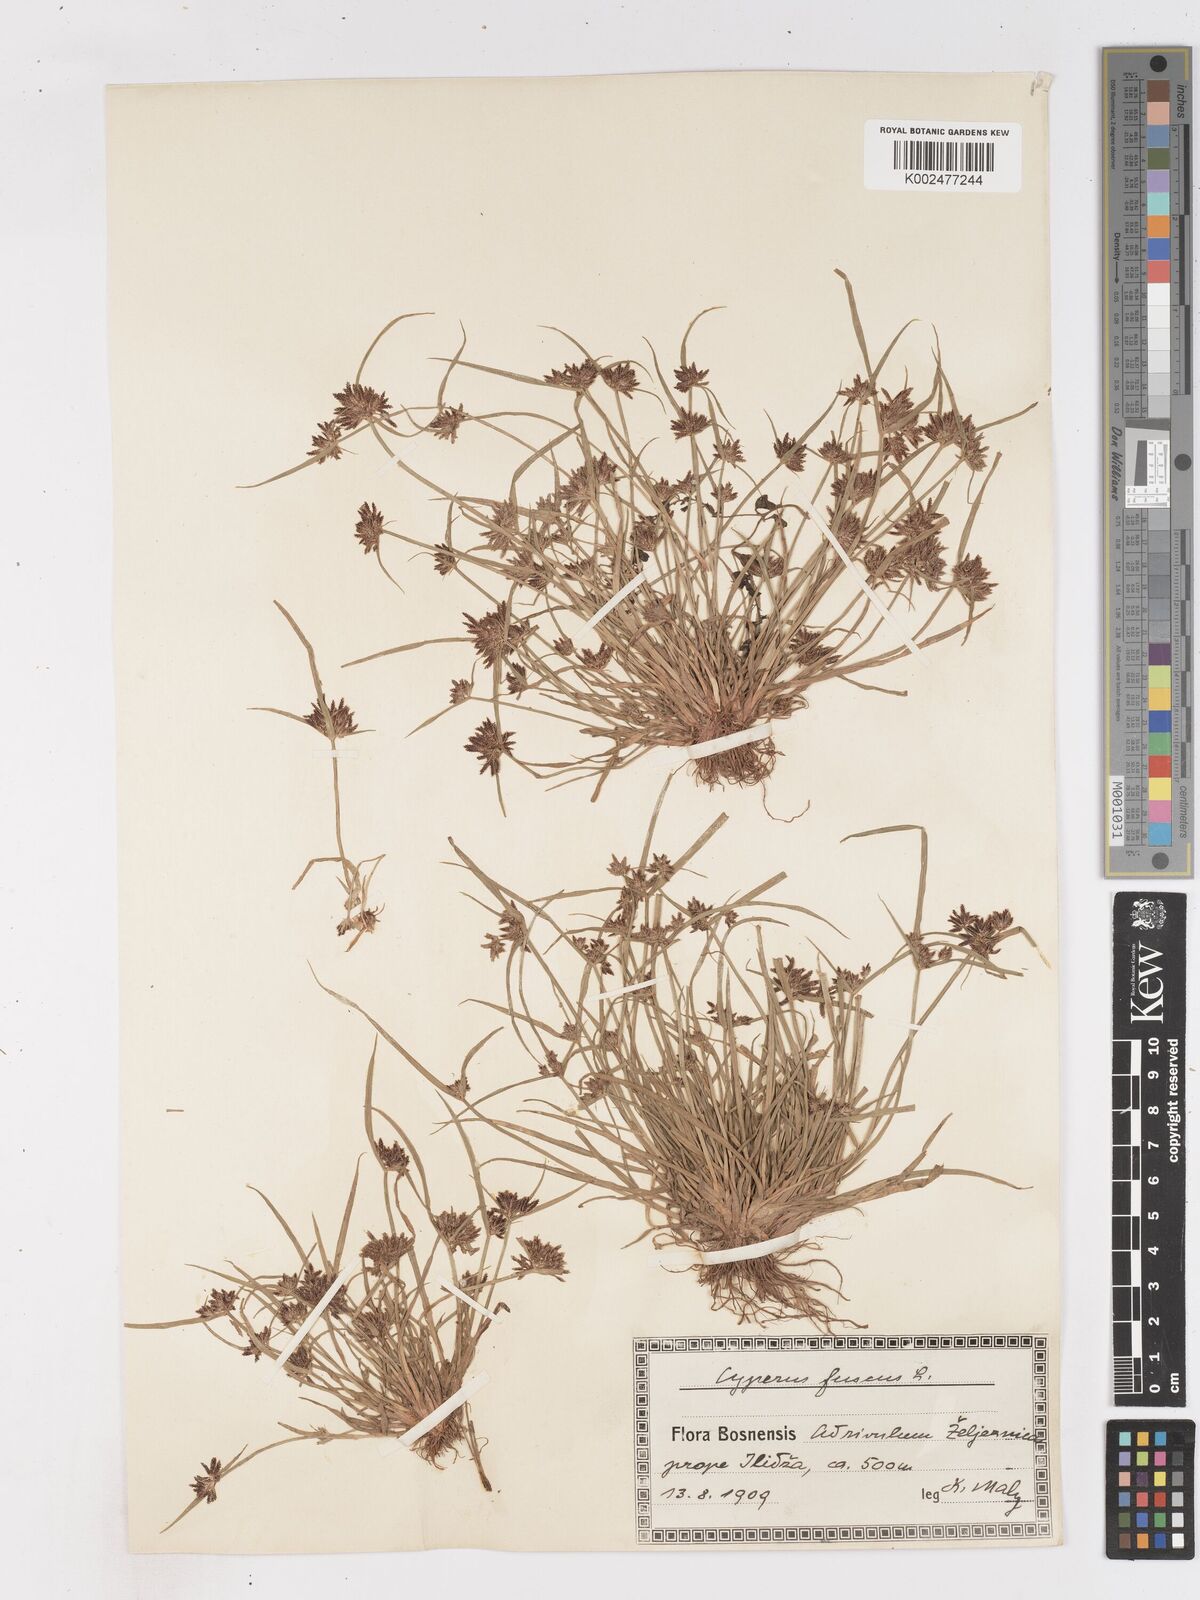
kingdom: Plantae
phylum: Tracheophyta
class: Liliopsida
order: Poales
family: Cyperaceae
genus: Cyperus
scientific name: Cyperus fuscus
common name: Brown galingale
